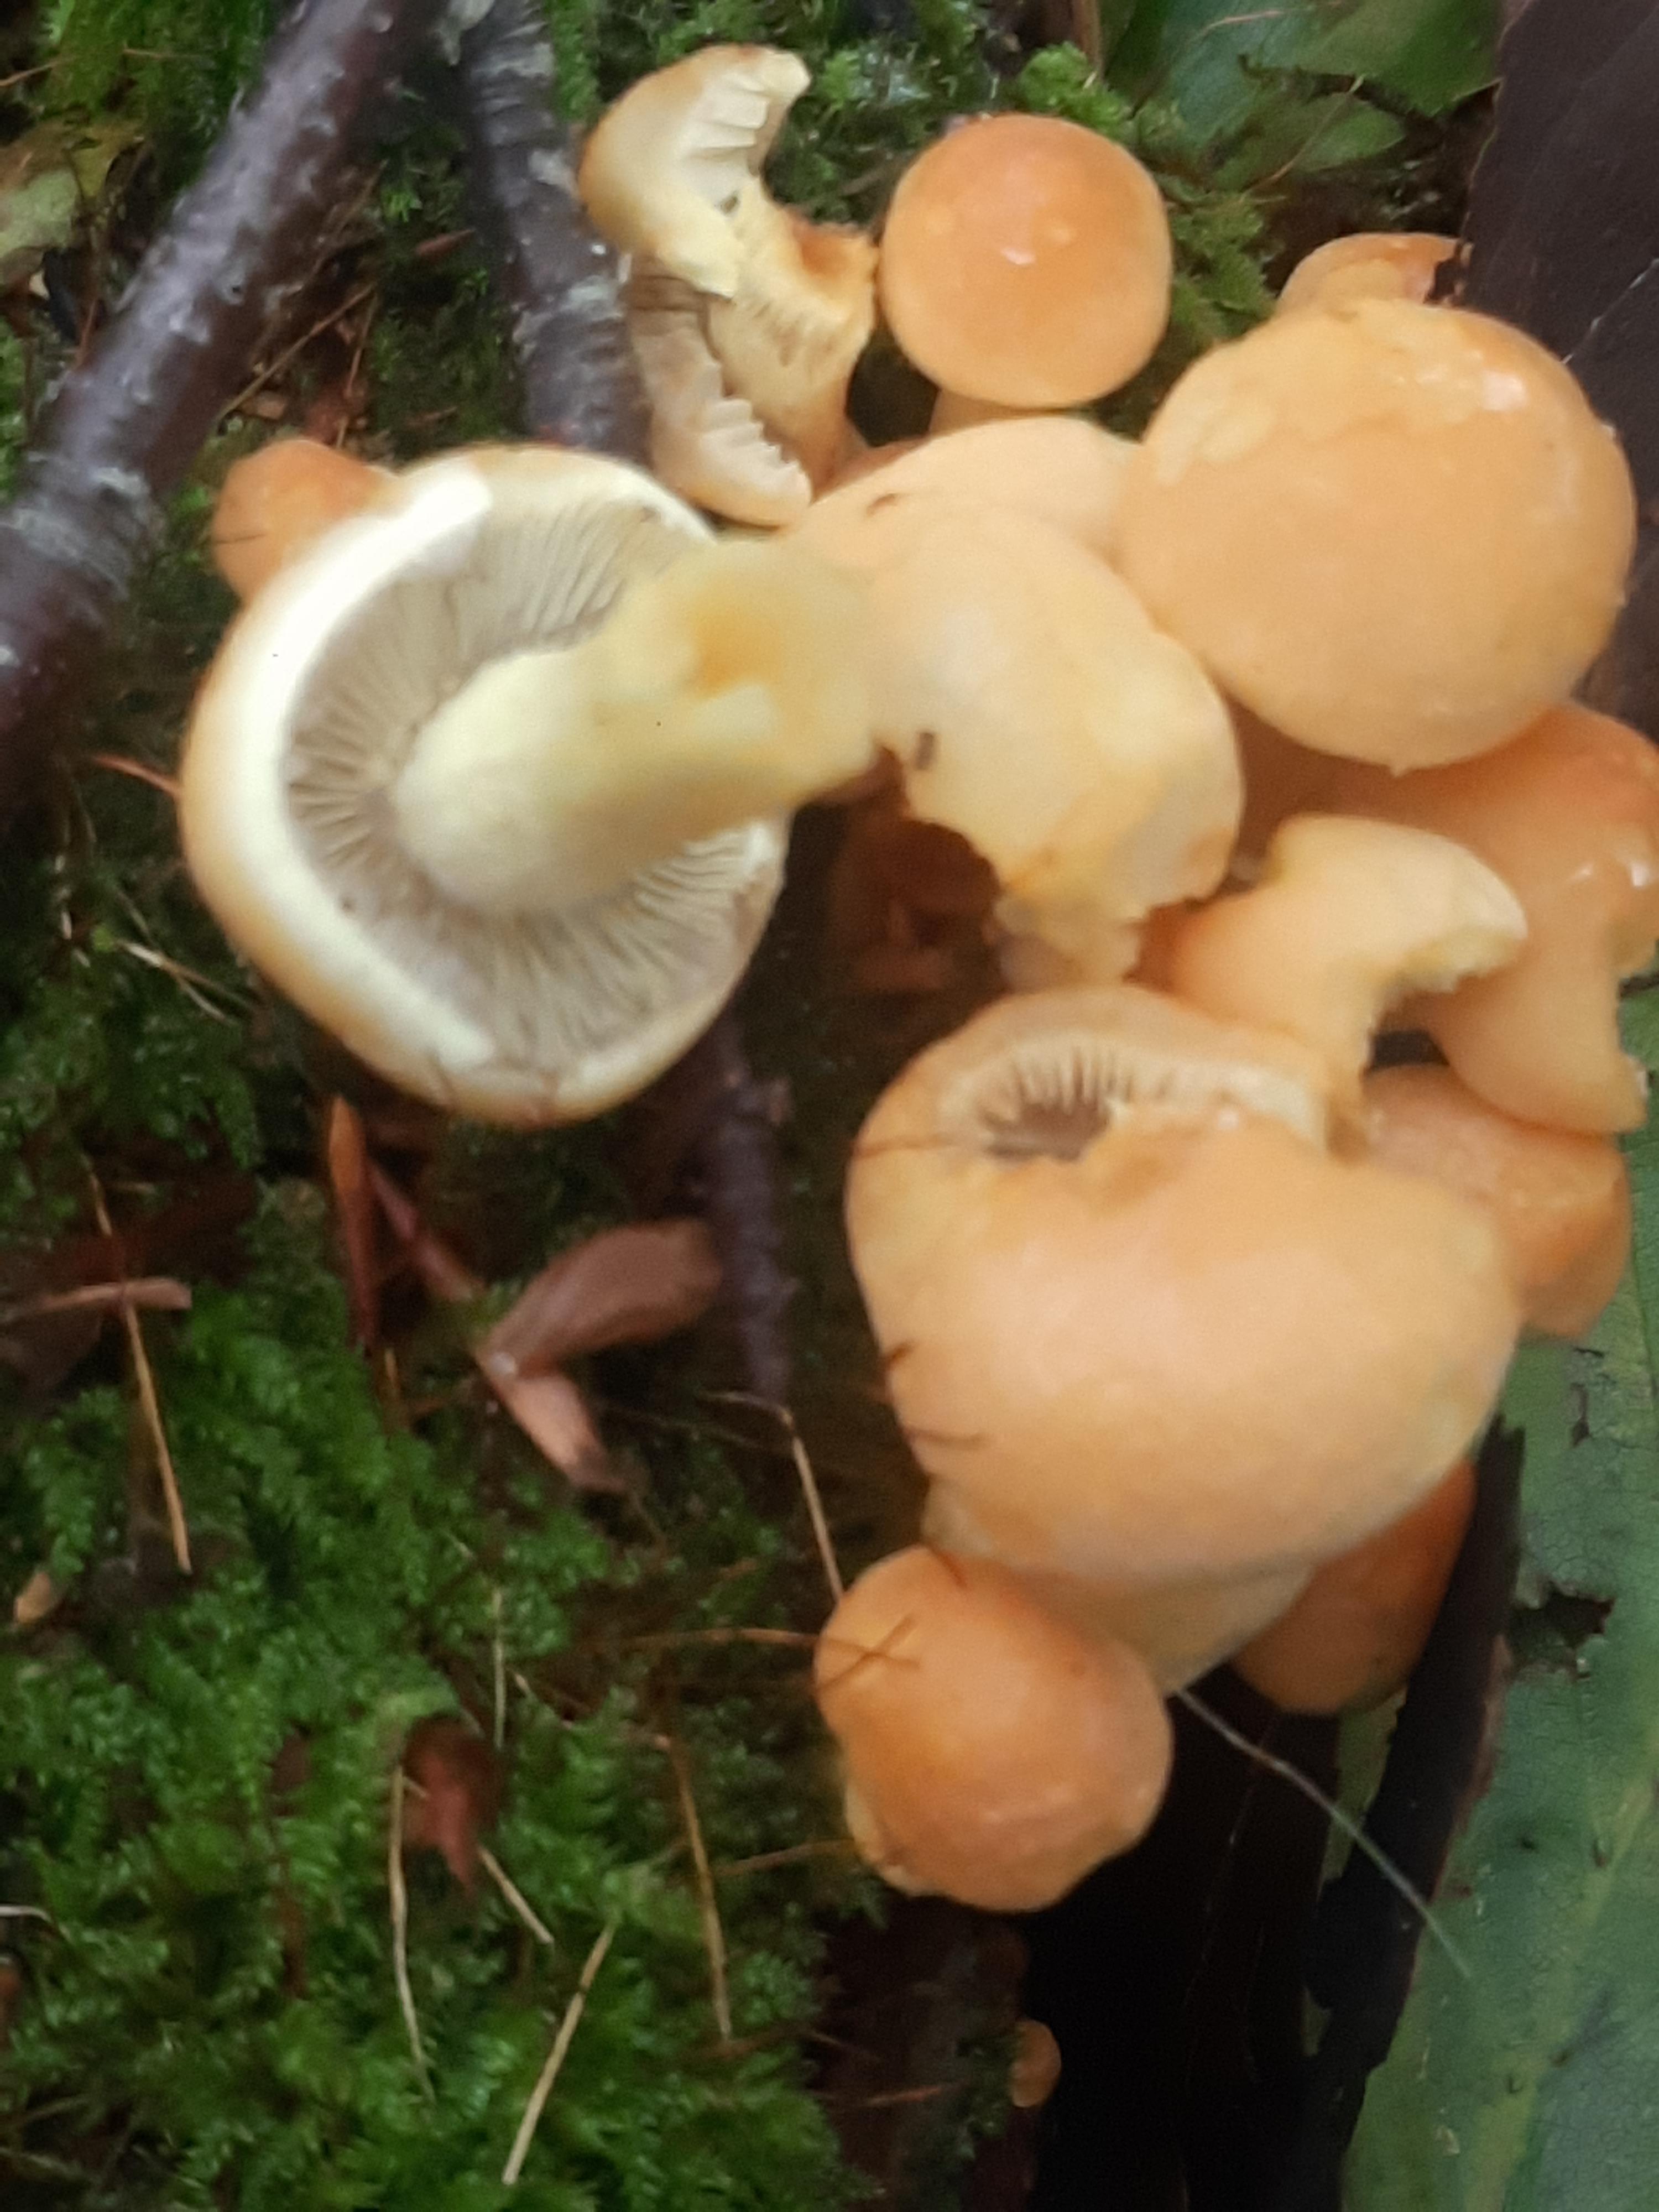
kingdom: Fungi
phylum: Basidiomycota
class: Agaricomycetes
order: Agaricales
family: Strophariaceae
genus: Hypholoma
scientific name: Hypholoma fasciculare
